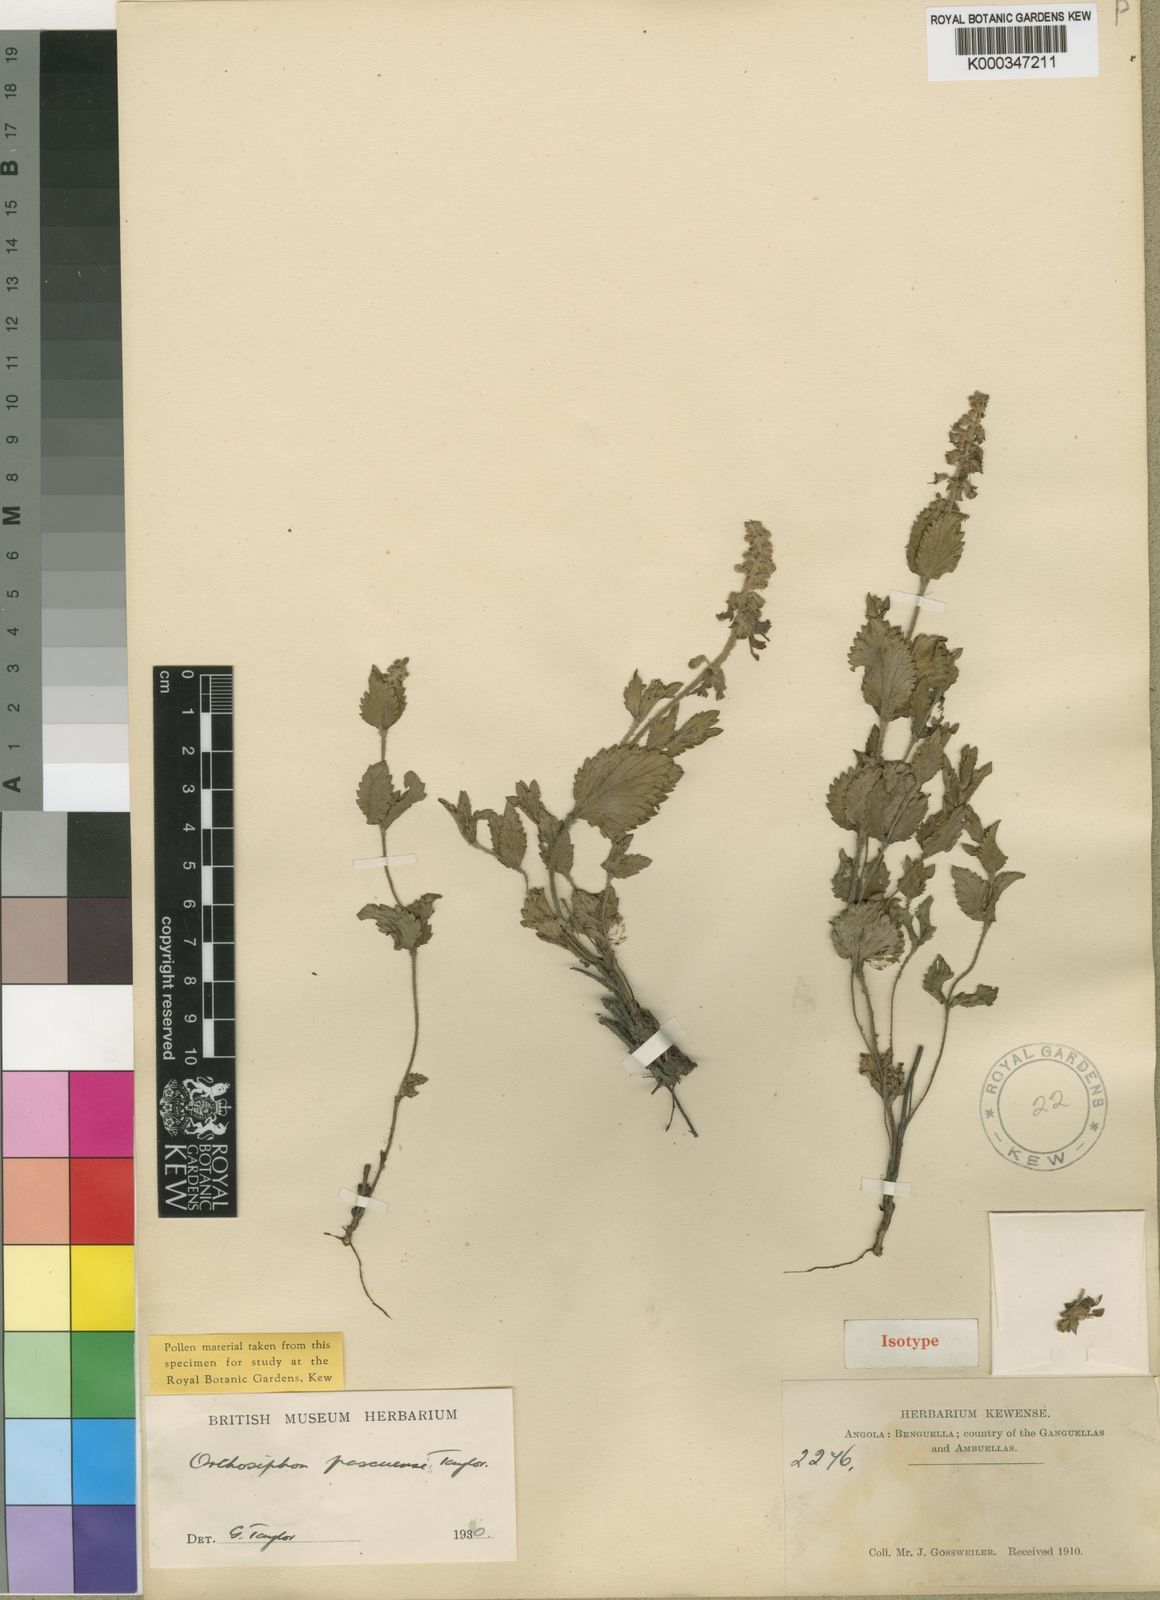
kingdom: Plantae
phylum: Tracheophyta
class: Magnoliopsida
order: Lamiales
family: Lamiaceae
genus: Orthosiphon
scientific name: Orthosiphon rubicundus
